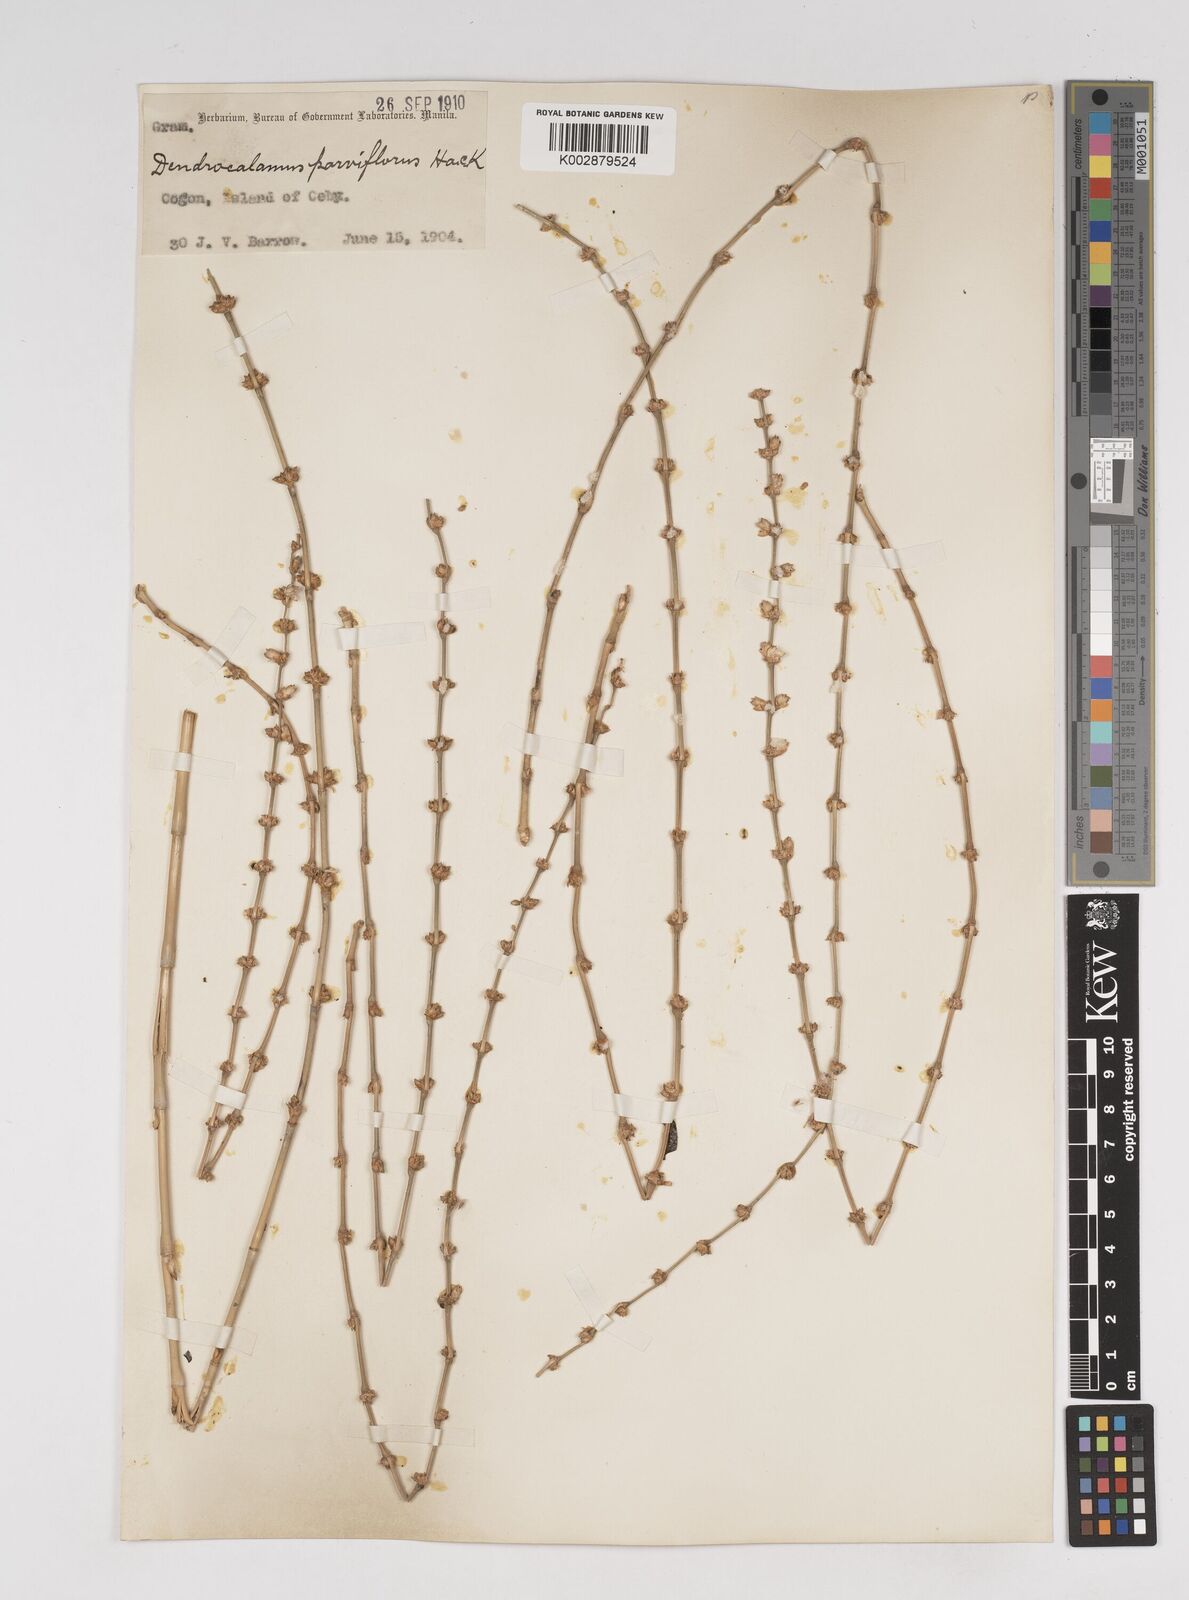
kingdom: Plantae
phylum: Tracheophyta
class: Liliopsida
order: Poales
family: Poaceae
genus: Dendrocalamus
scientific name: Dendrocalamus merrillianus
